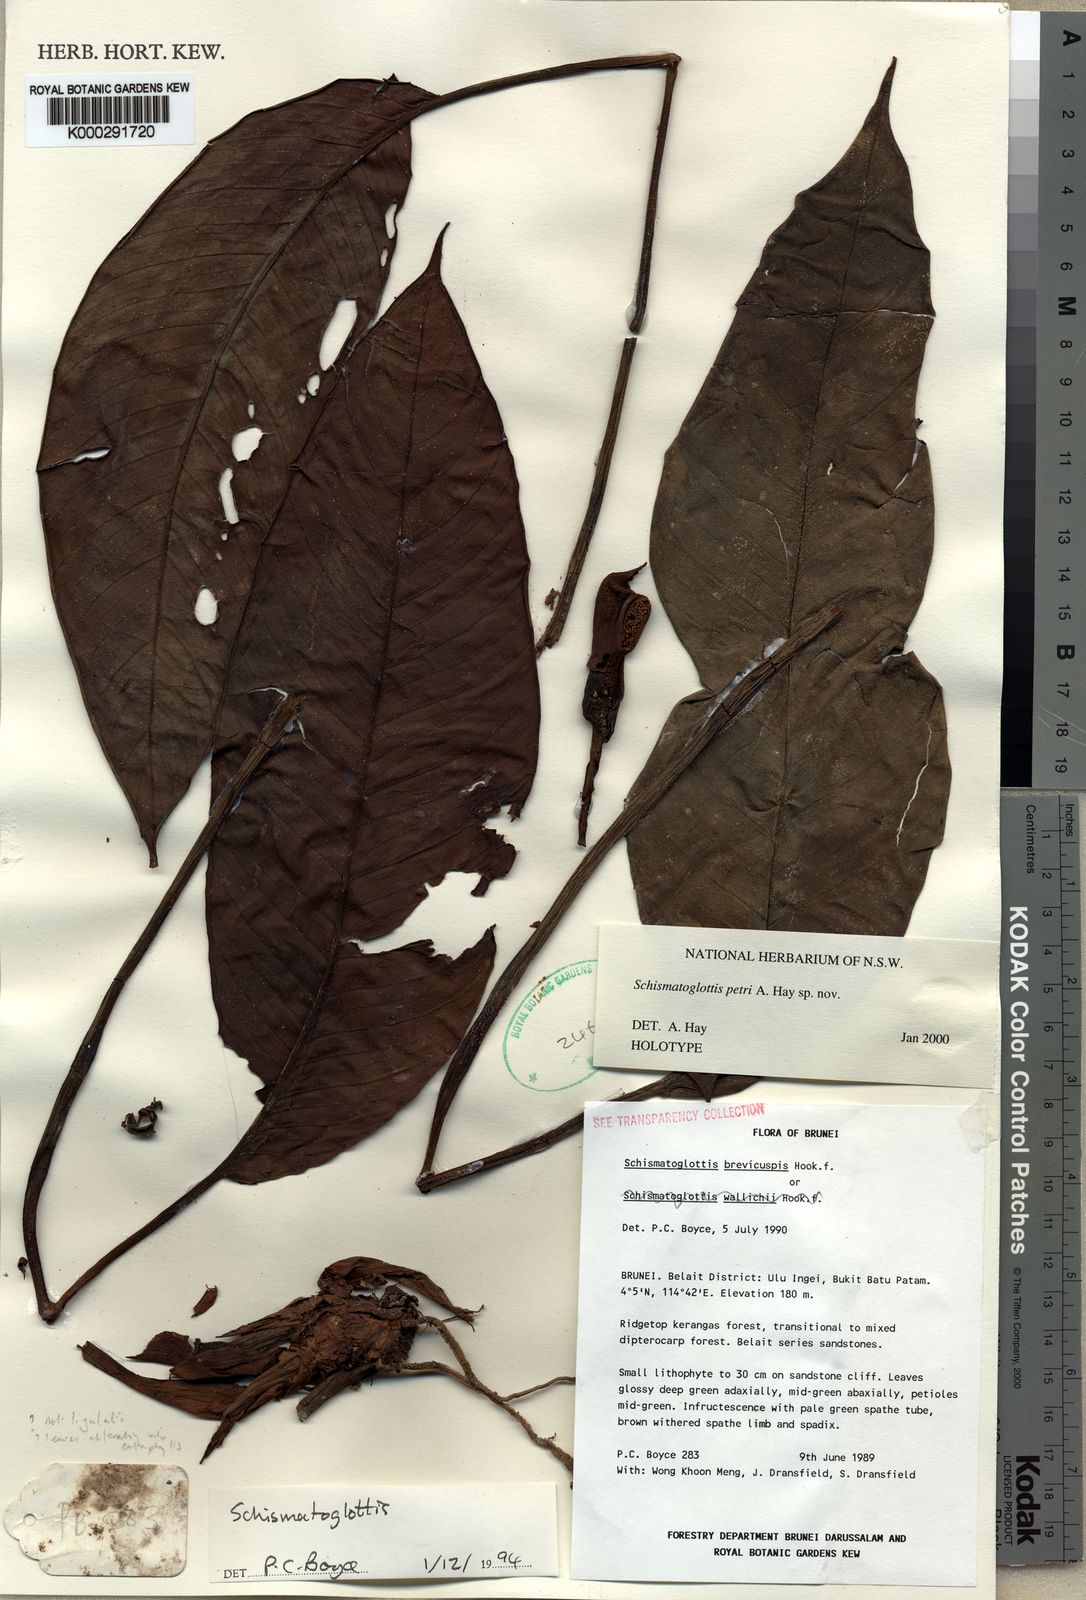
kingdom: Plantae
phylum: Tracheophyta
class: Liliopsida
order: Alismatales
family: Araceae
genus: Schismatoglottis
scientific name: Schismatoglottis petri
